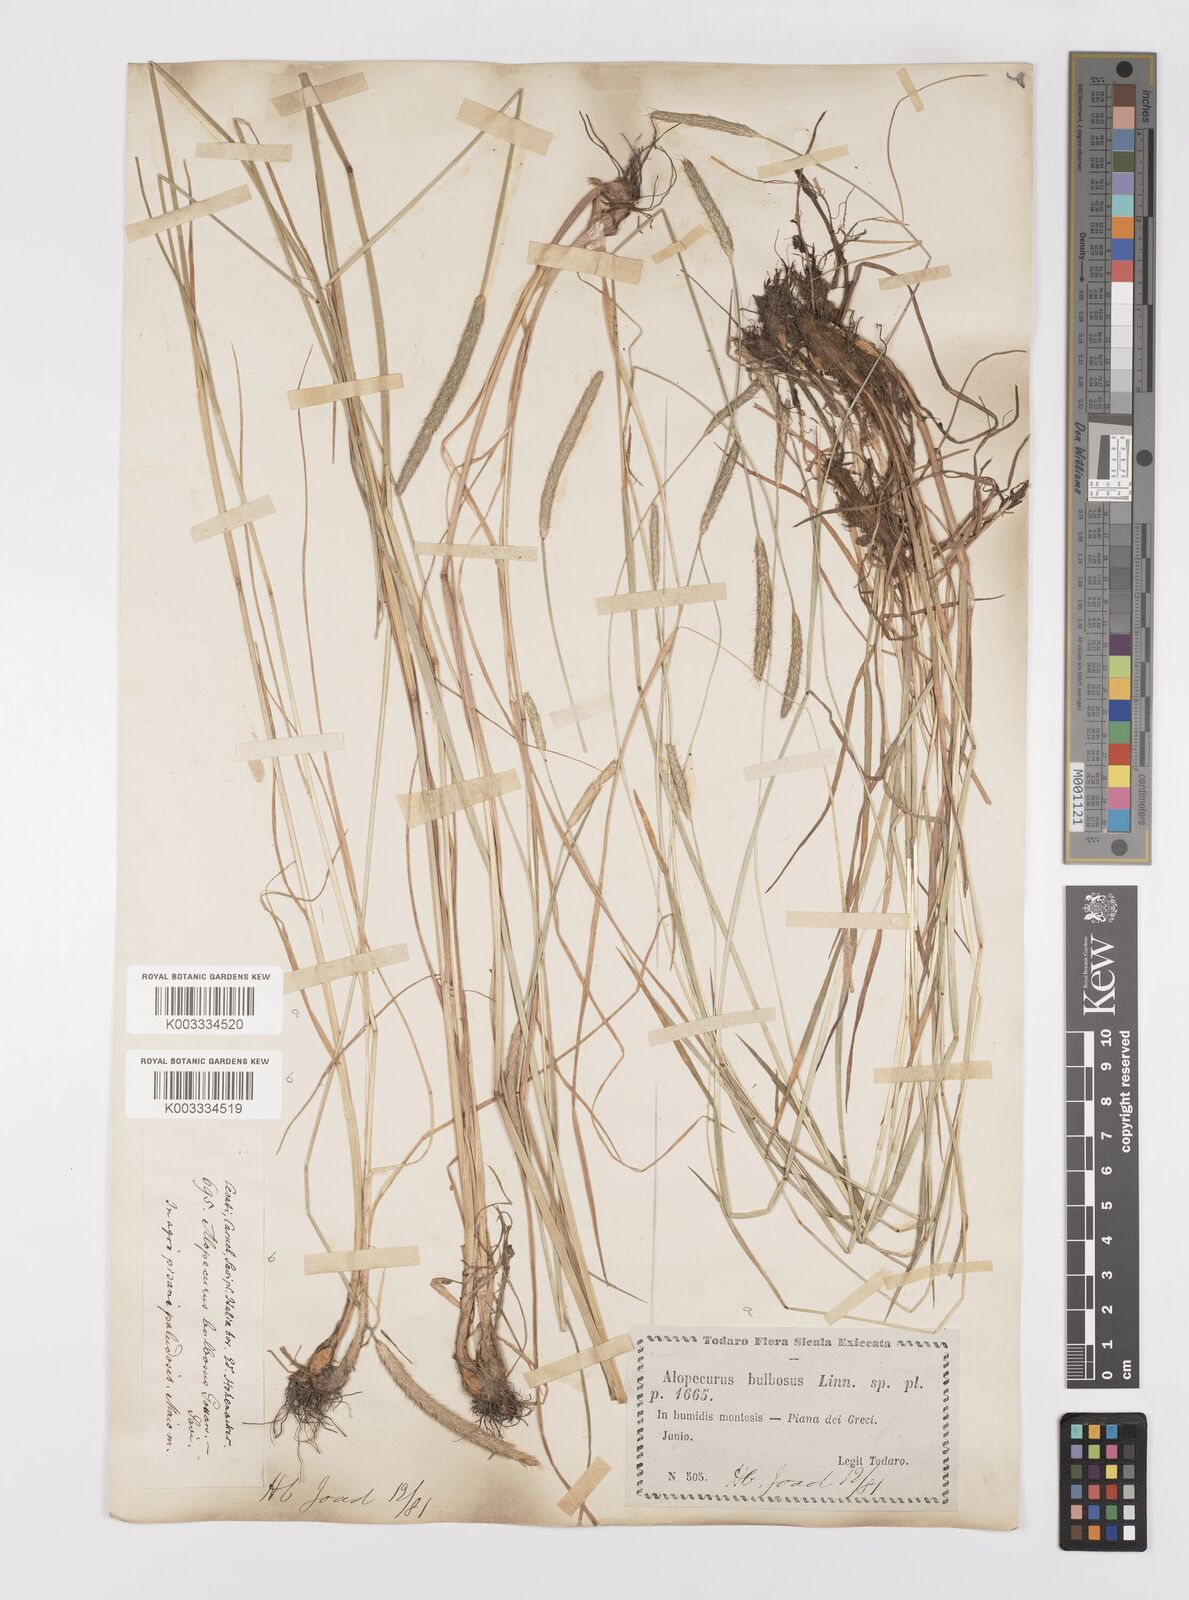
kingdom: Plantae
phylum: Tracheophyta
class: Liliopsida
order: Poales
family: Poaceae
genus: Alopecurus
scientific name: Alopecurus bulbosus
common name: Bulbous foxtail
